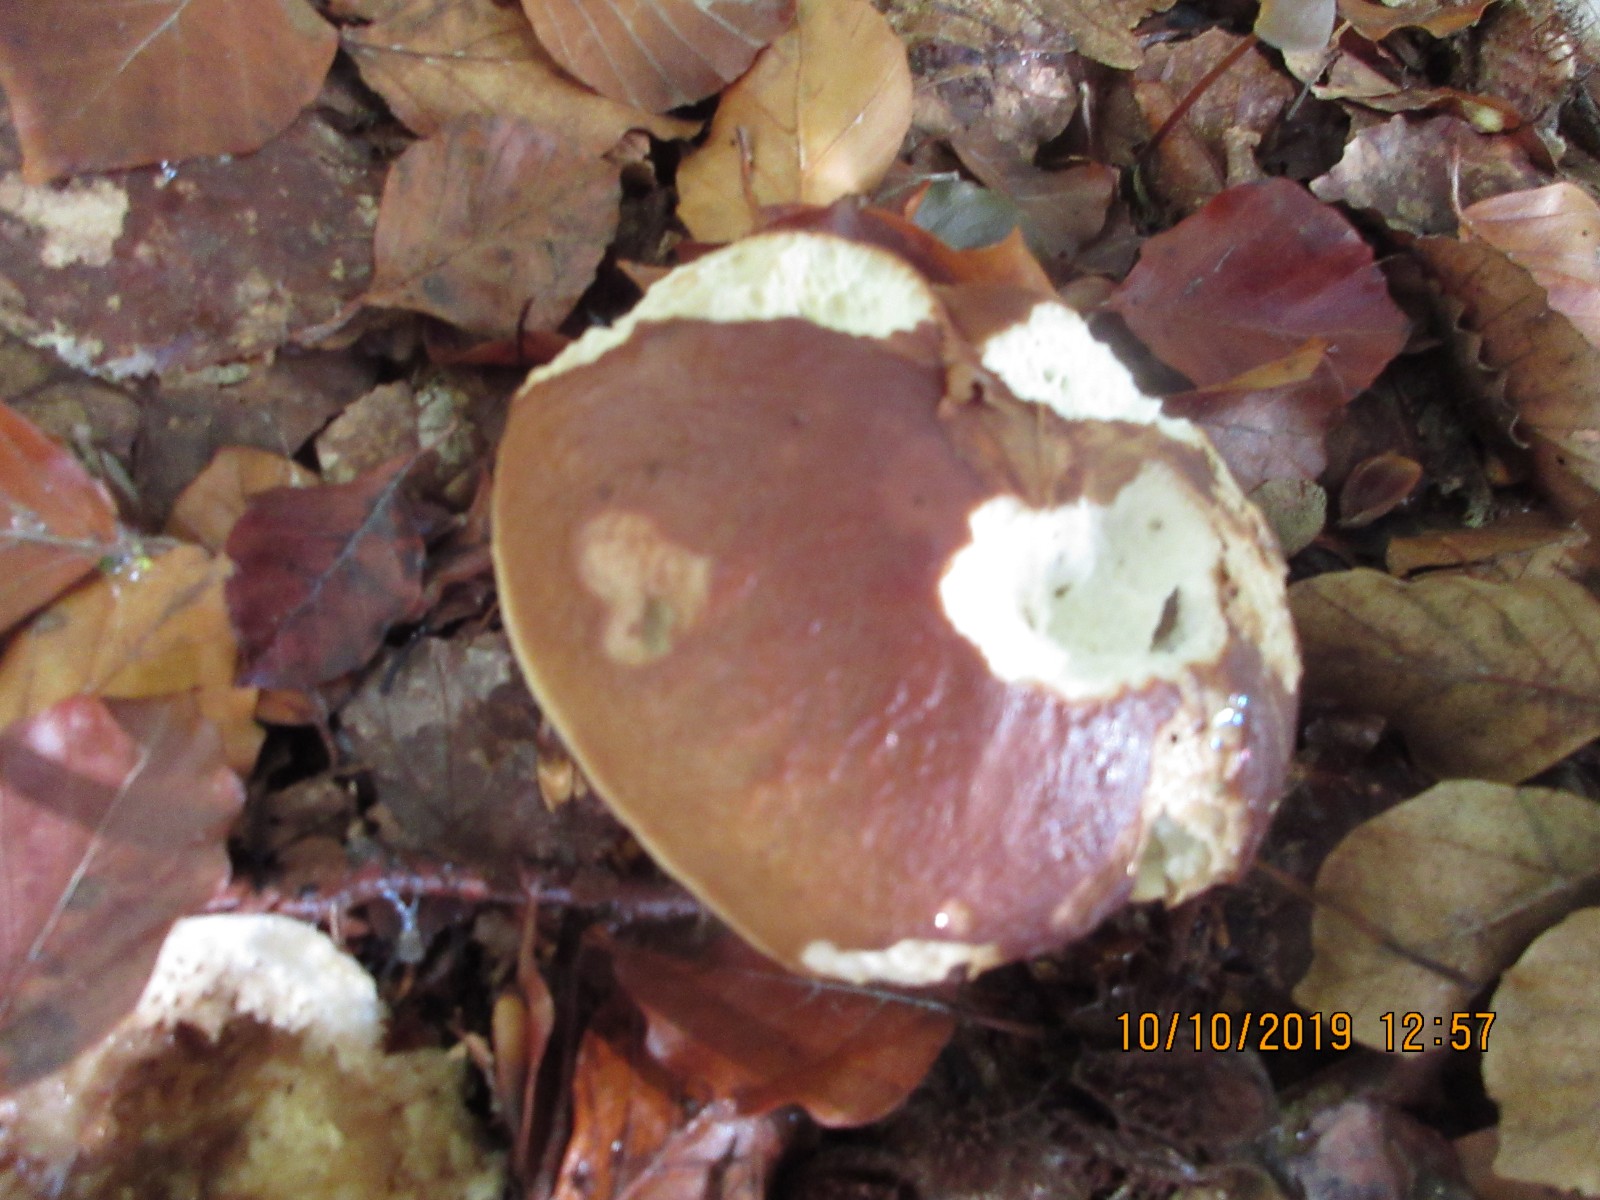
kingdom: Fungi
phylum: Basidiomycota
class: Agaricomycetes
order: Boletales
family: Boletaceae
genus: Boletus
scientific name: Boletus reticulatus
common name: sommer-rørhat
